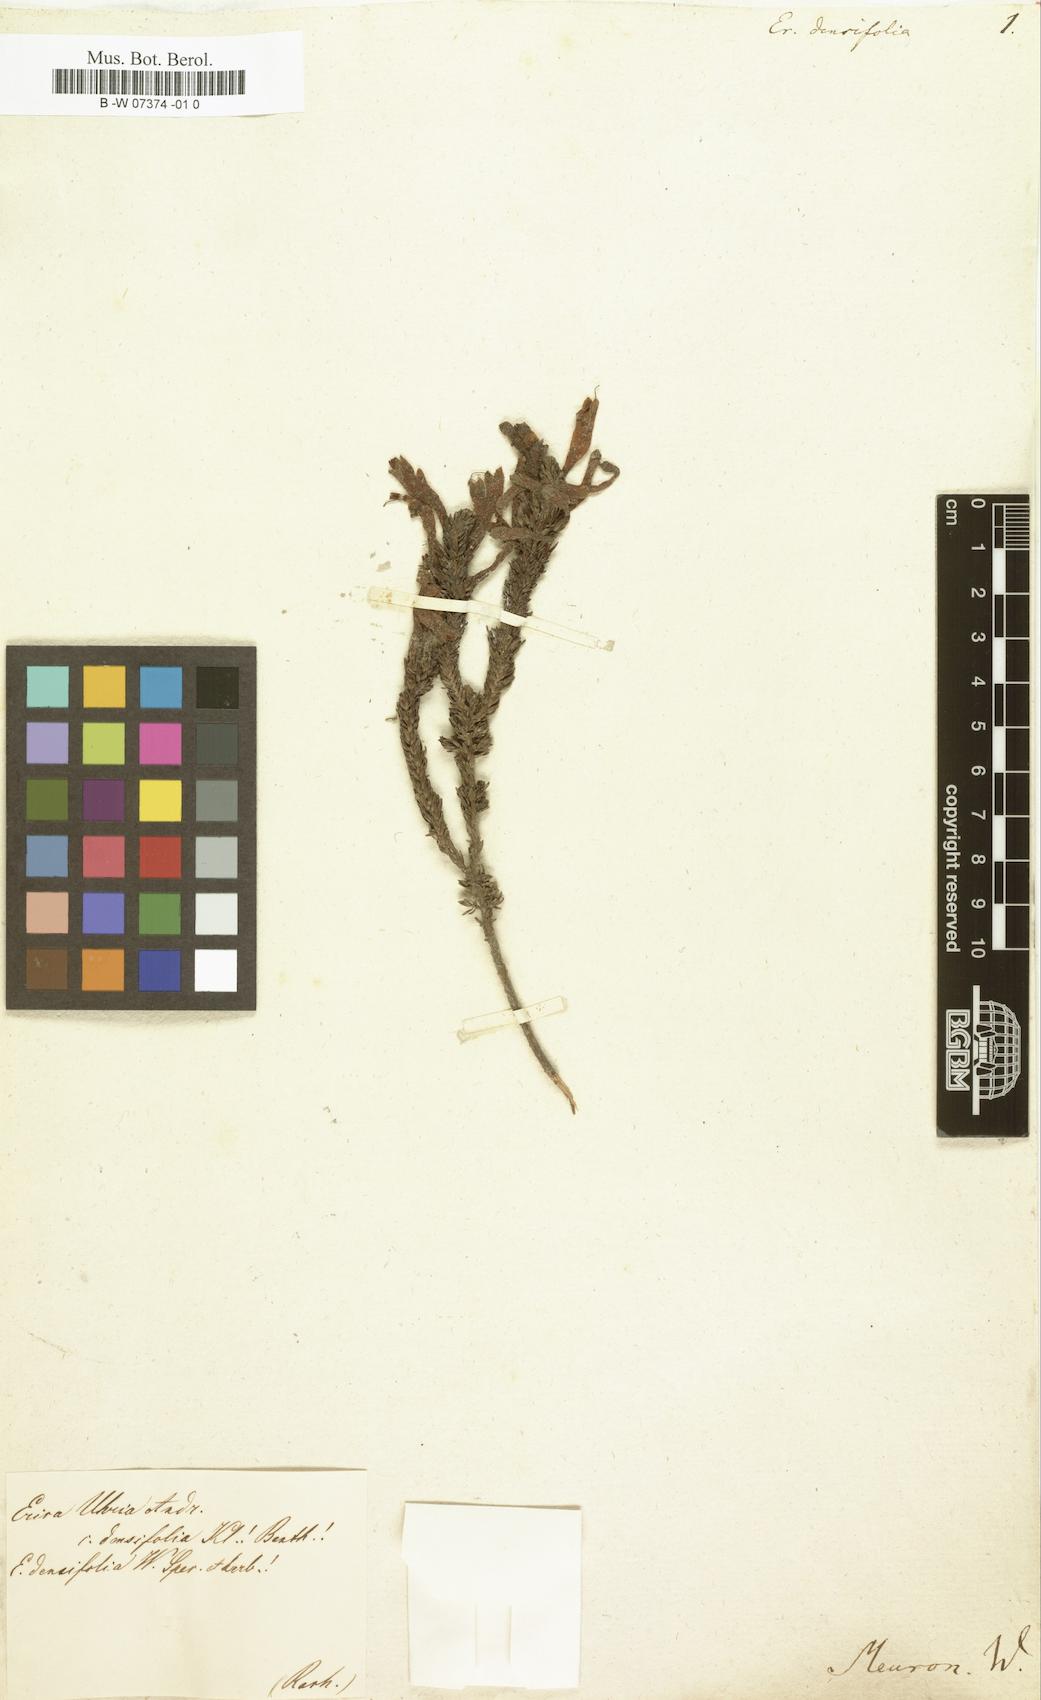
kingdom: Plantae
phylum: Tracheophyta
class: Magnoliopsida
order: Ericales
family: Ericaceae
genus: Erica
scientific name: Erica densifolia
